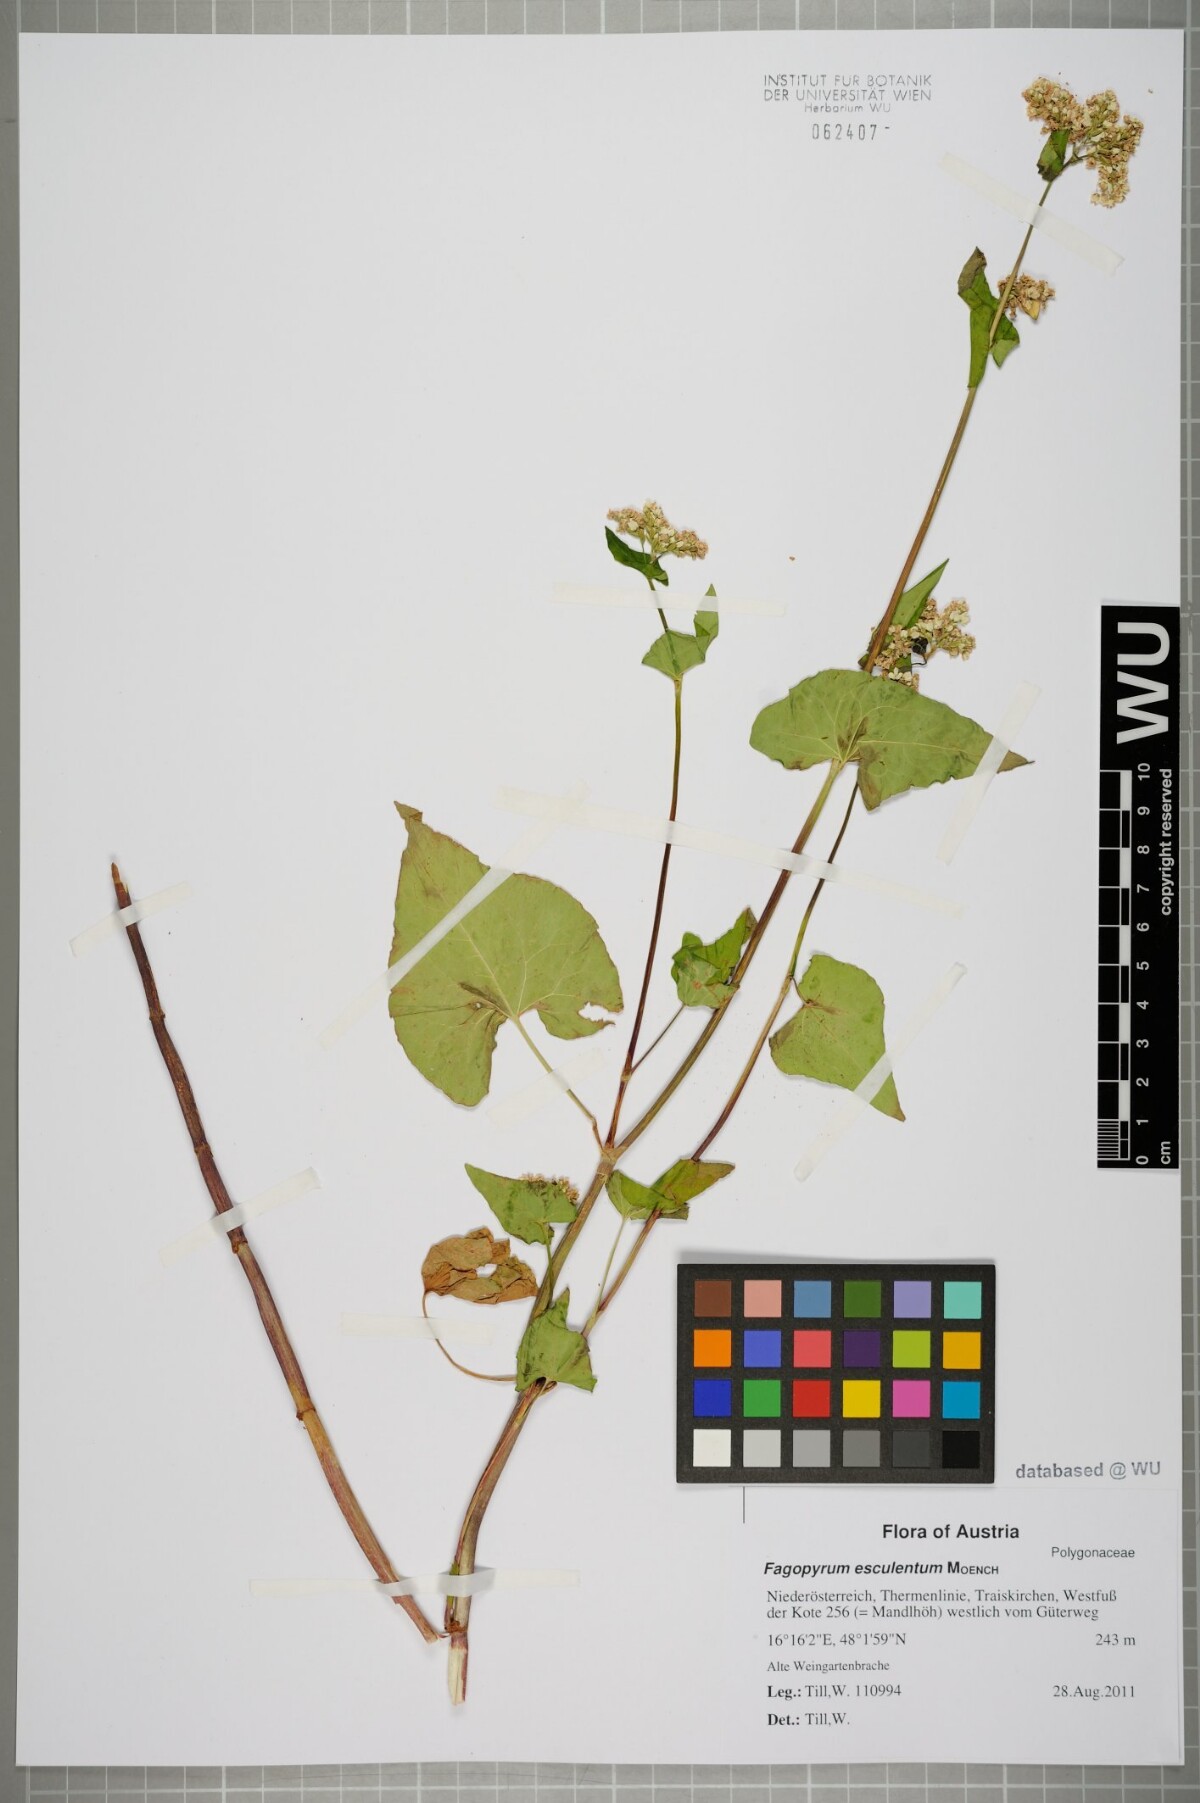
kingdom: Plantae
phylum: Tracheophyta
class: Magnoliopsida
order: Caryophyllales
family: Polygonaceae
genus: Fagopyrum
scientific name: Fagopyrum esculentum
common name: Buckwheat
